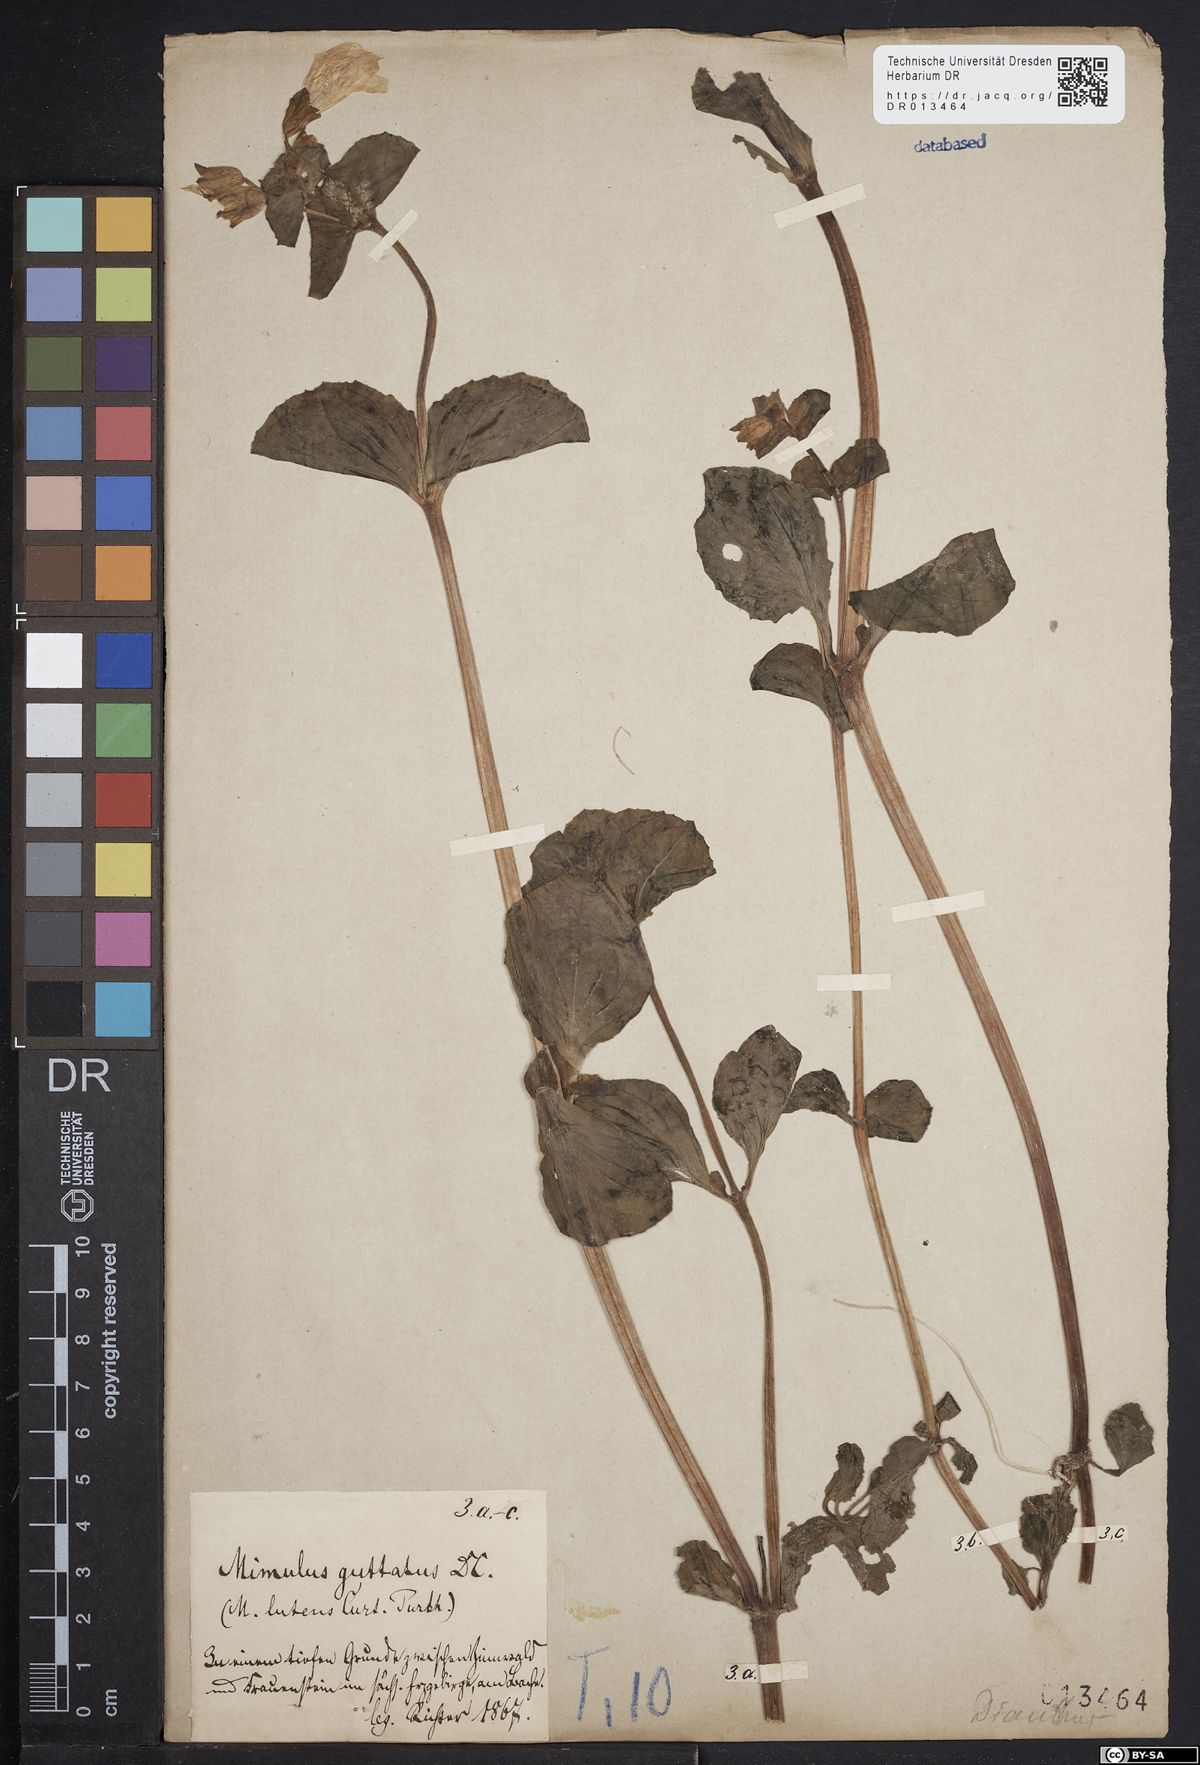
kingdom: Plantae
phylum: Tracheophyta
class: Magnoliopsida
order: Lamiales
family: Phrymaceae
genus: Erythranthe
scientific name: Erythranthe guttata
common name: Monkeyflower
